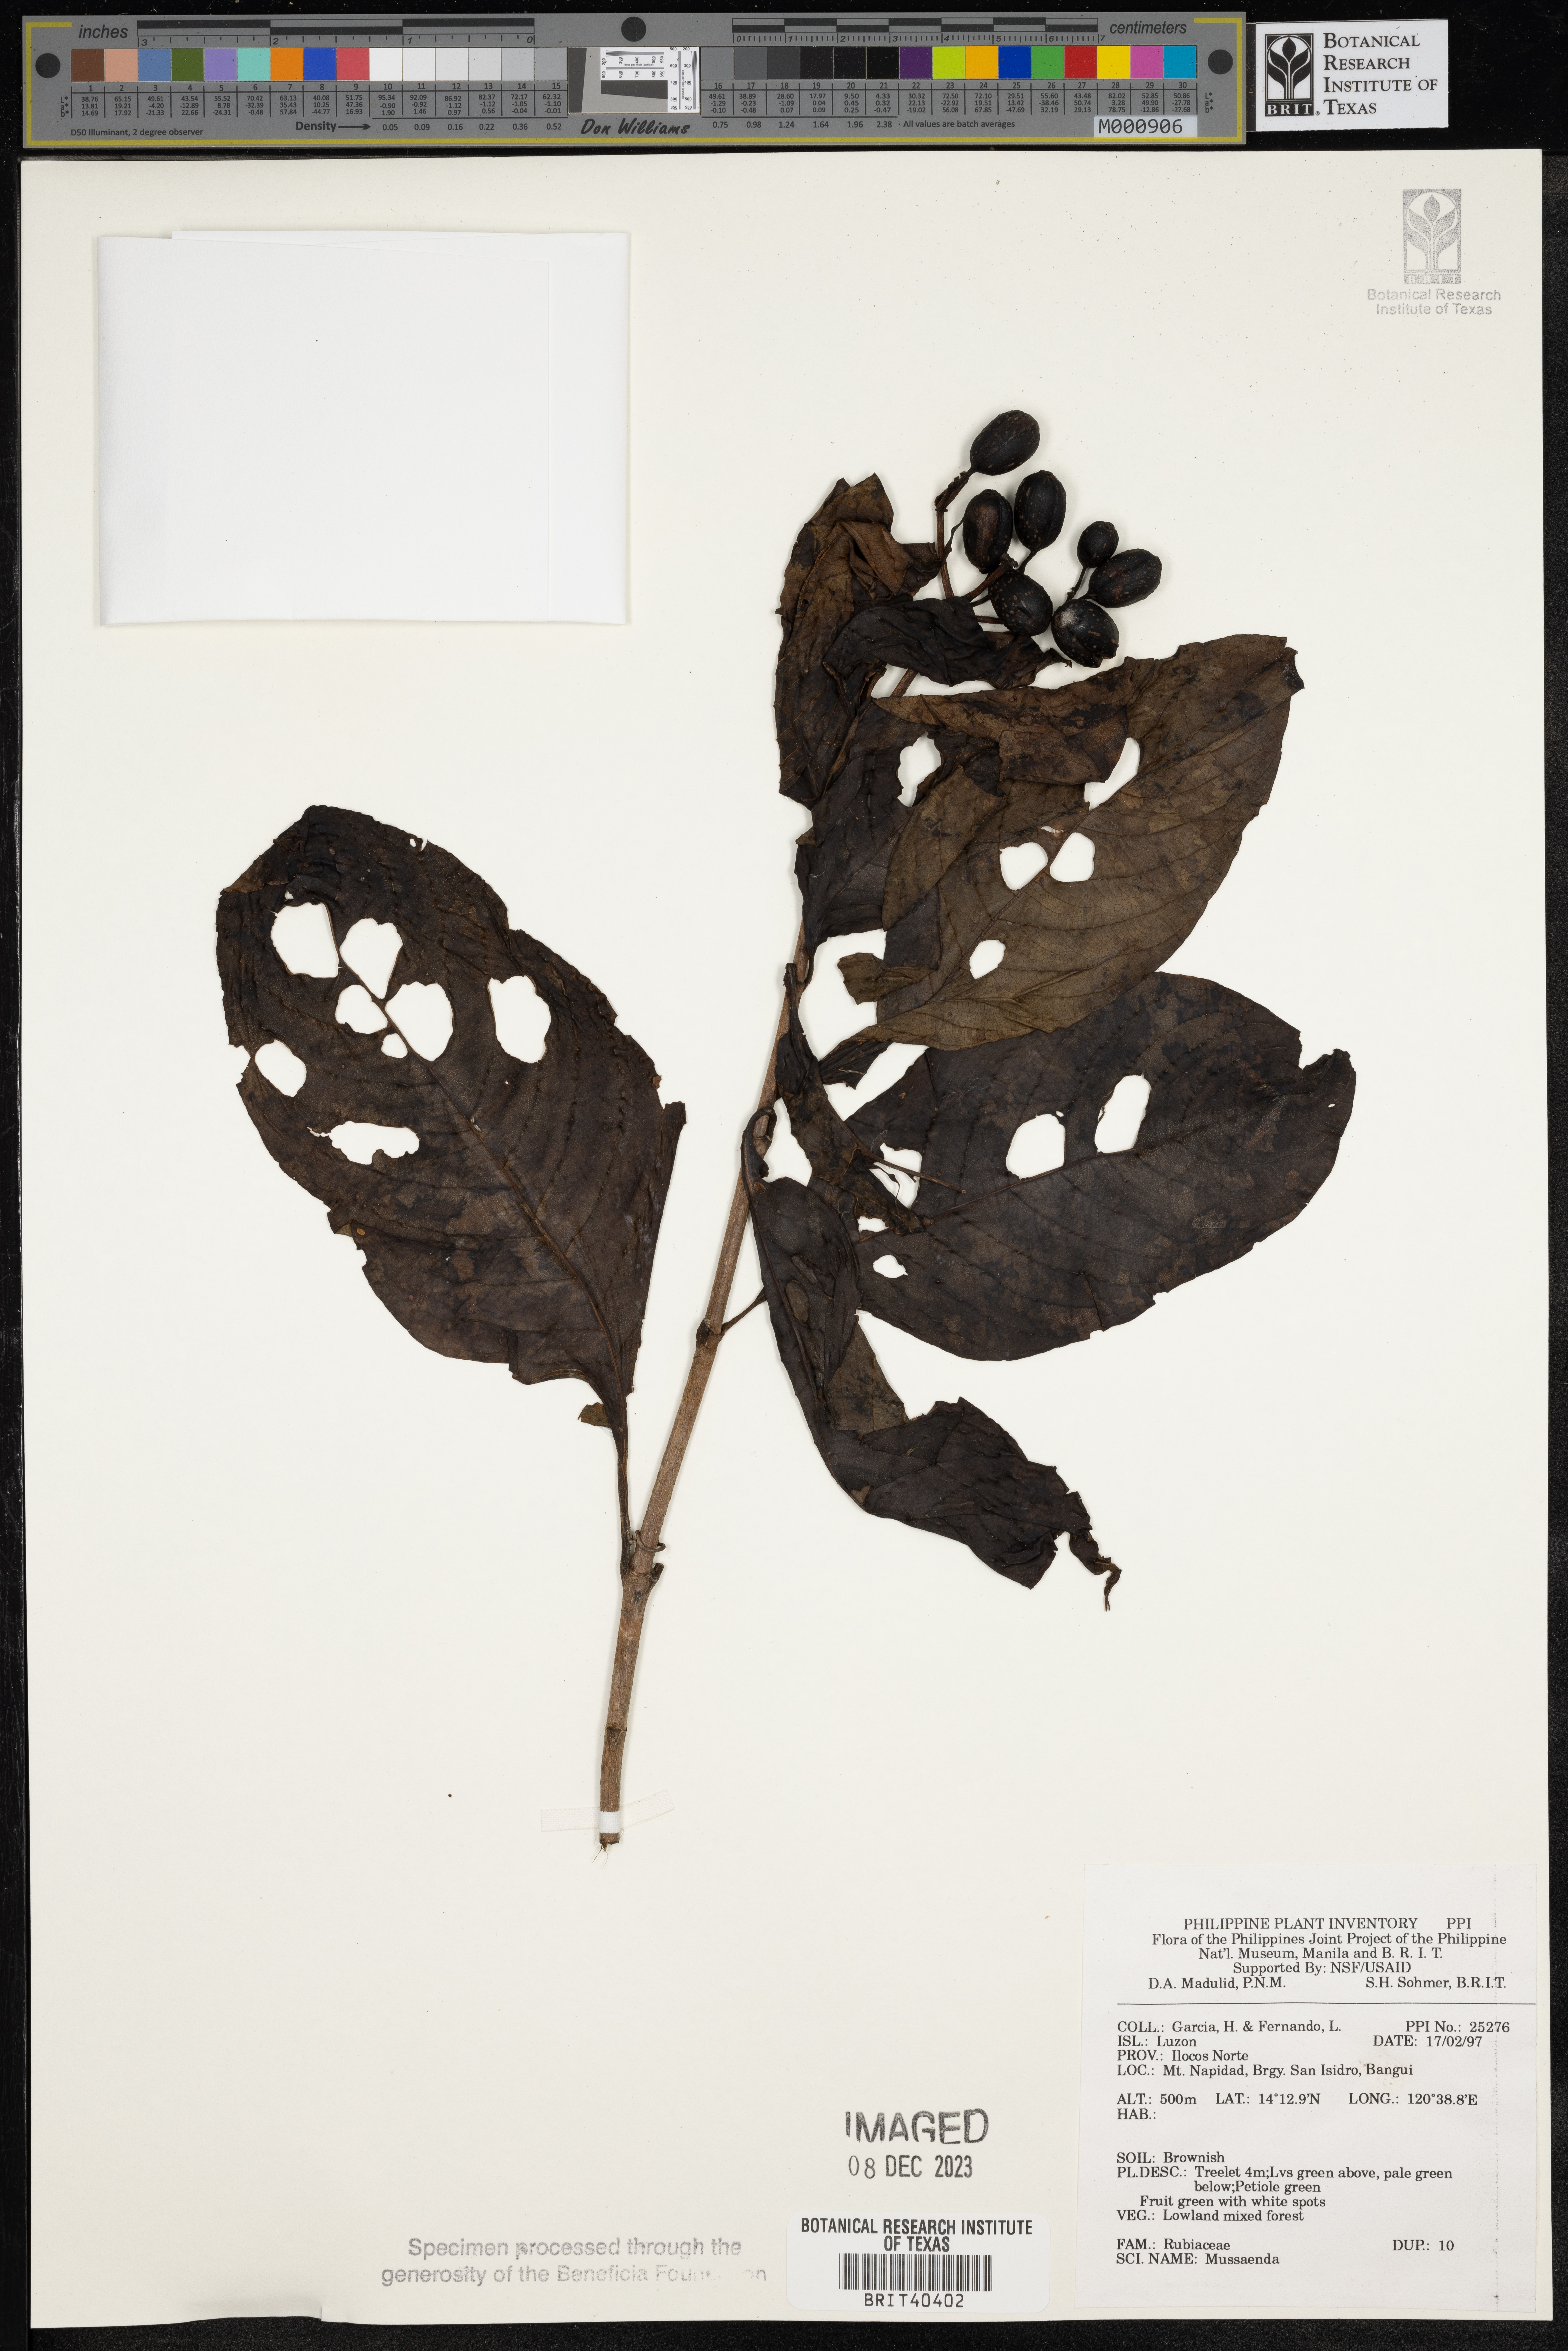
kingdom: Plantae
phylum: Tracheophyta
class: Magnoliopsida
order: Gentianales
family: Rubiaceae
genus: Mussaenda
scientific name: Mussaenda
